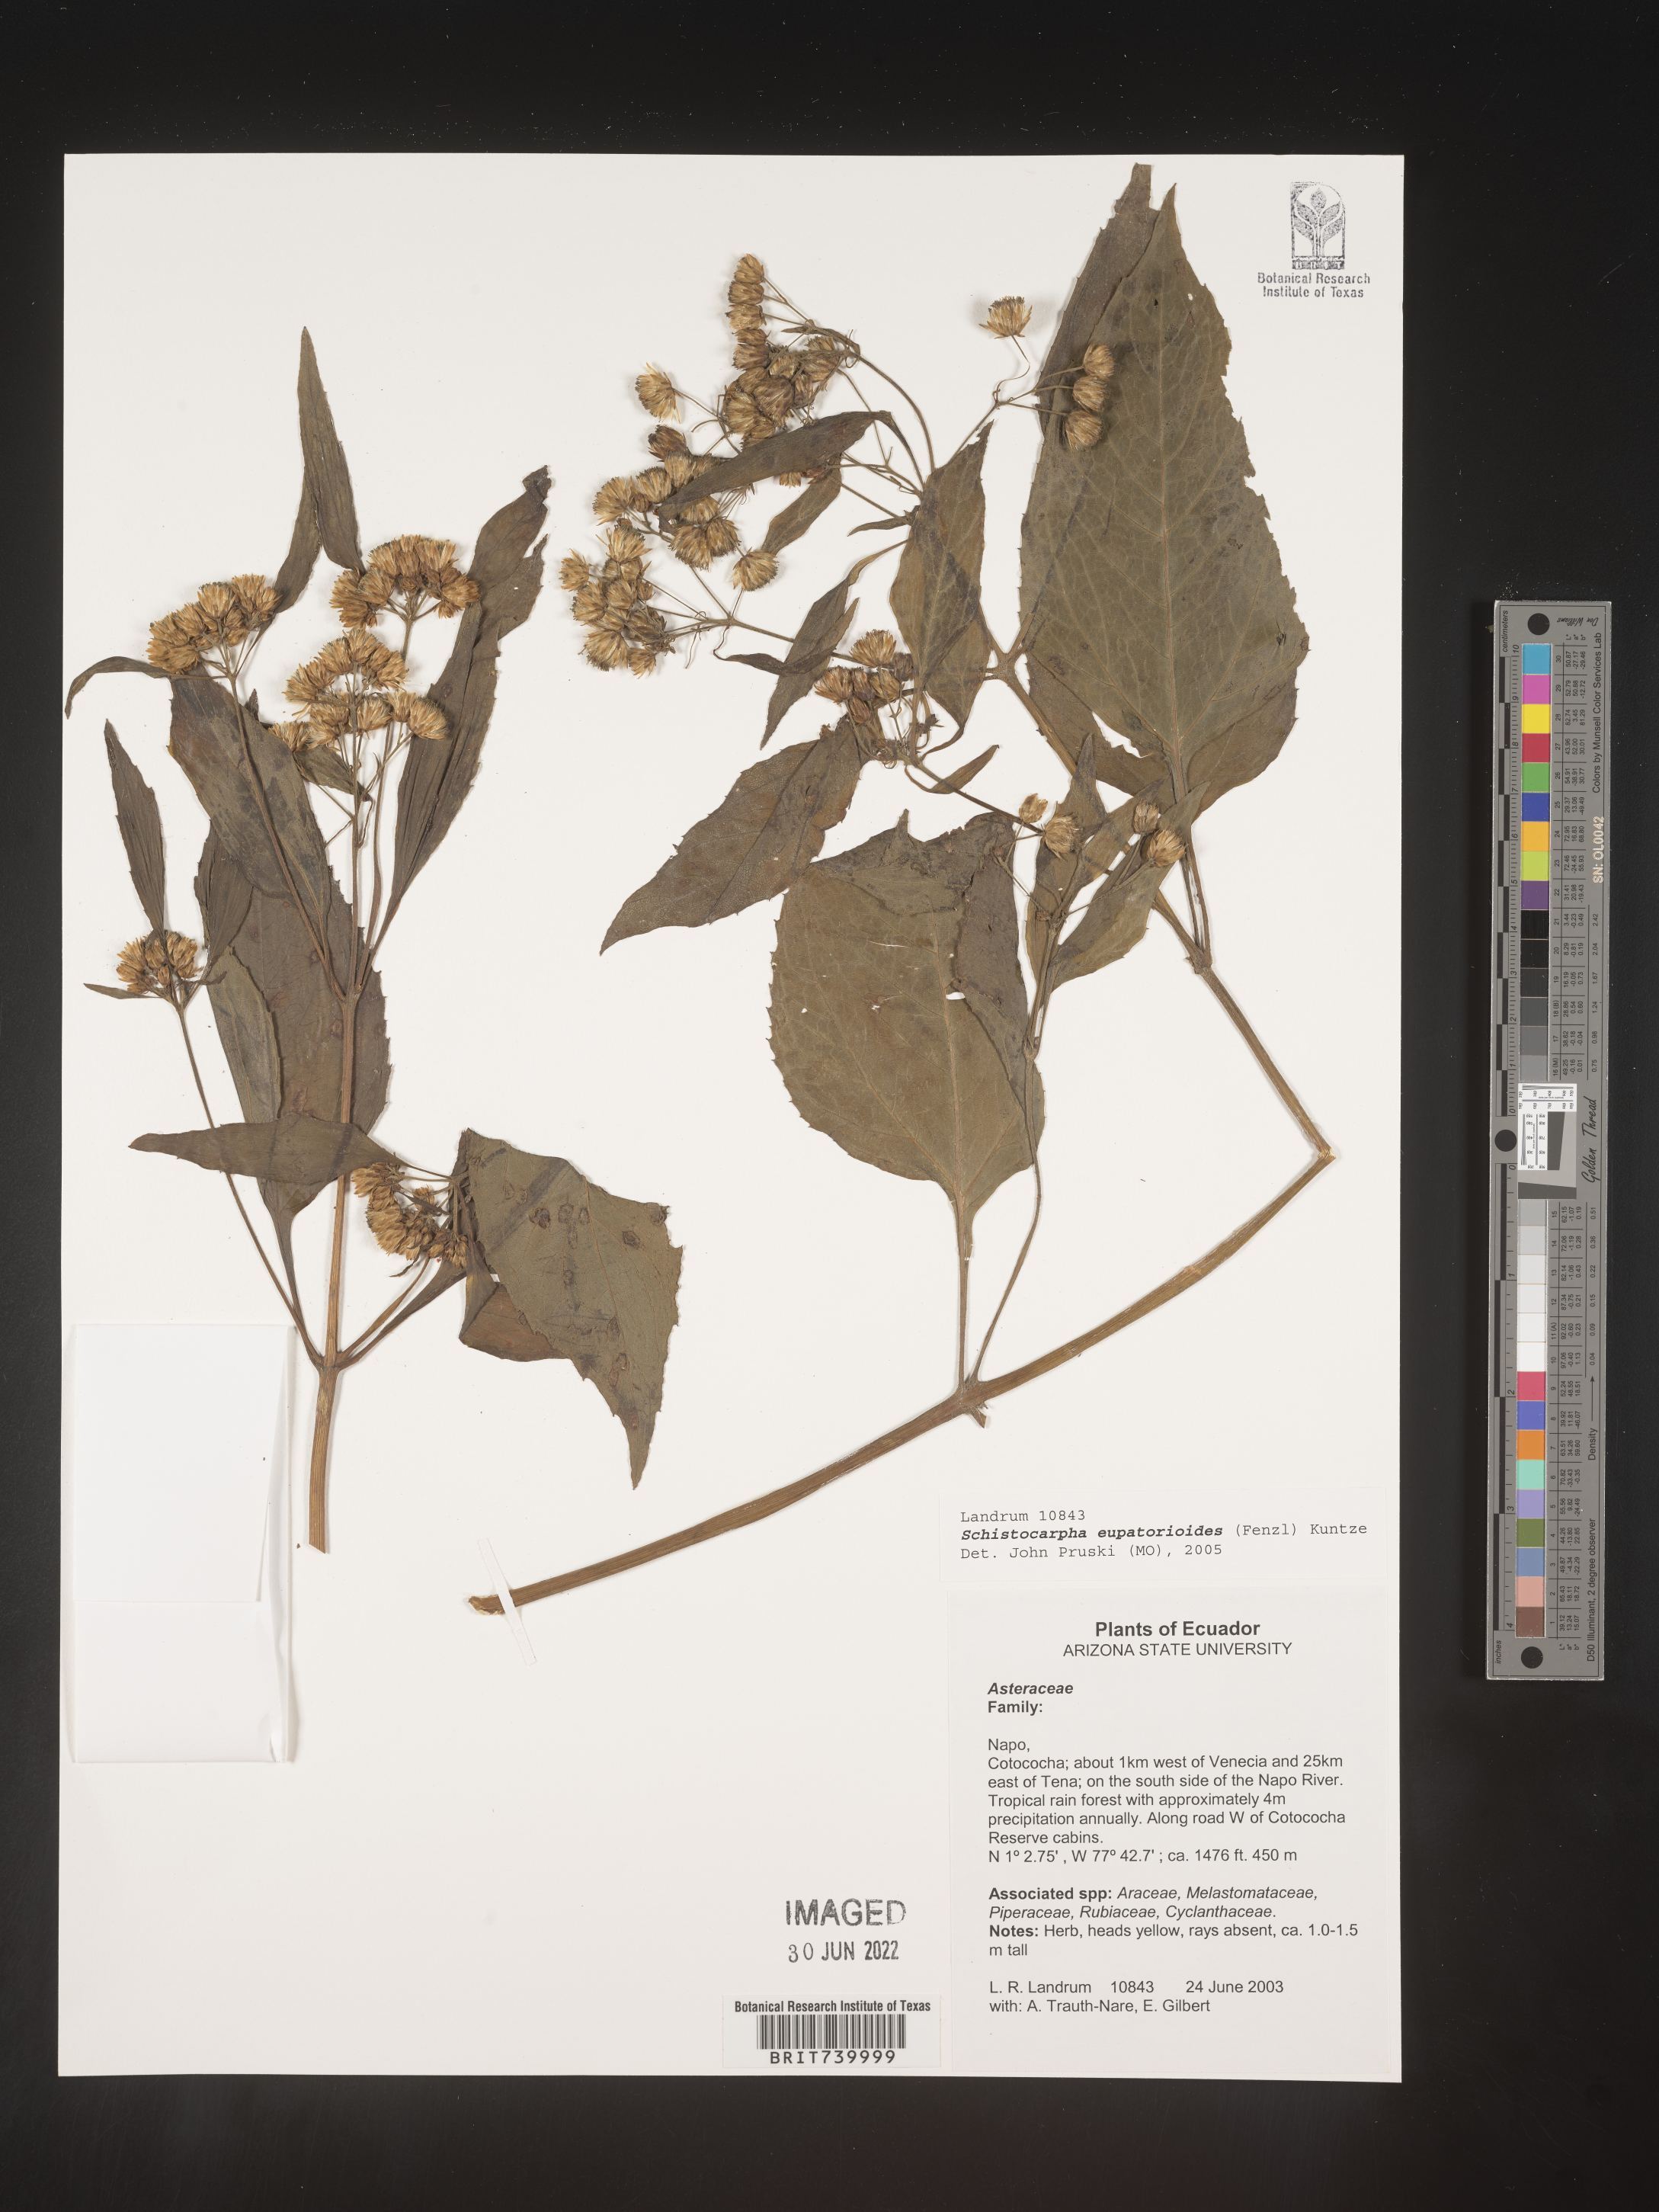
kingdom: Plantae
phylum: Tracheophyta
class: Magnoliopsida
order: Asterales
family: Asteraceae
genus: Schistocarpha
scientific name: Schistocarpha
